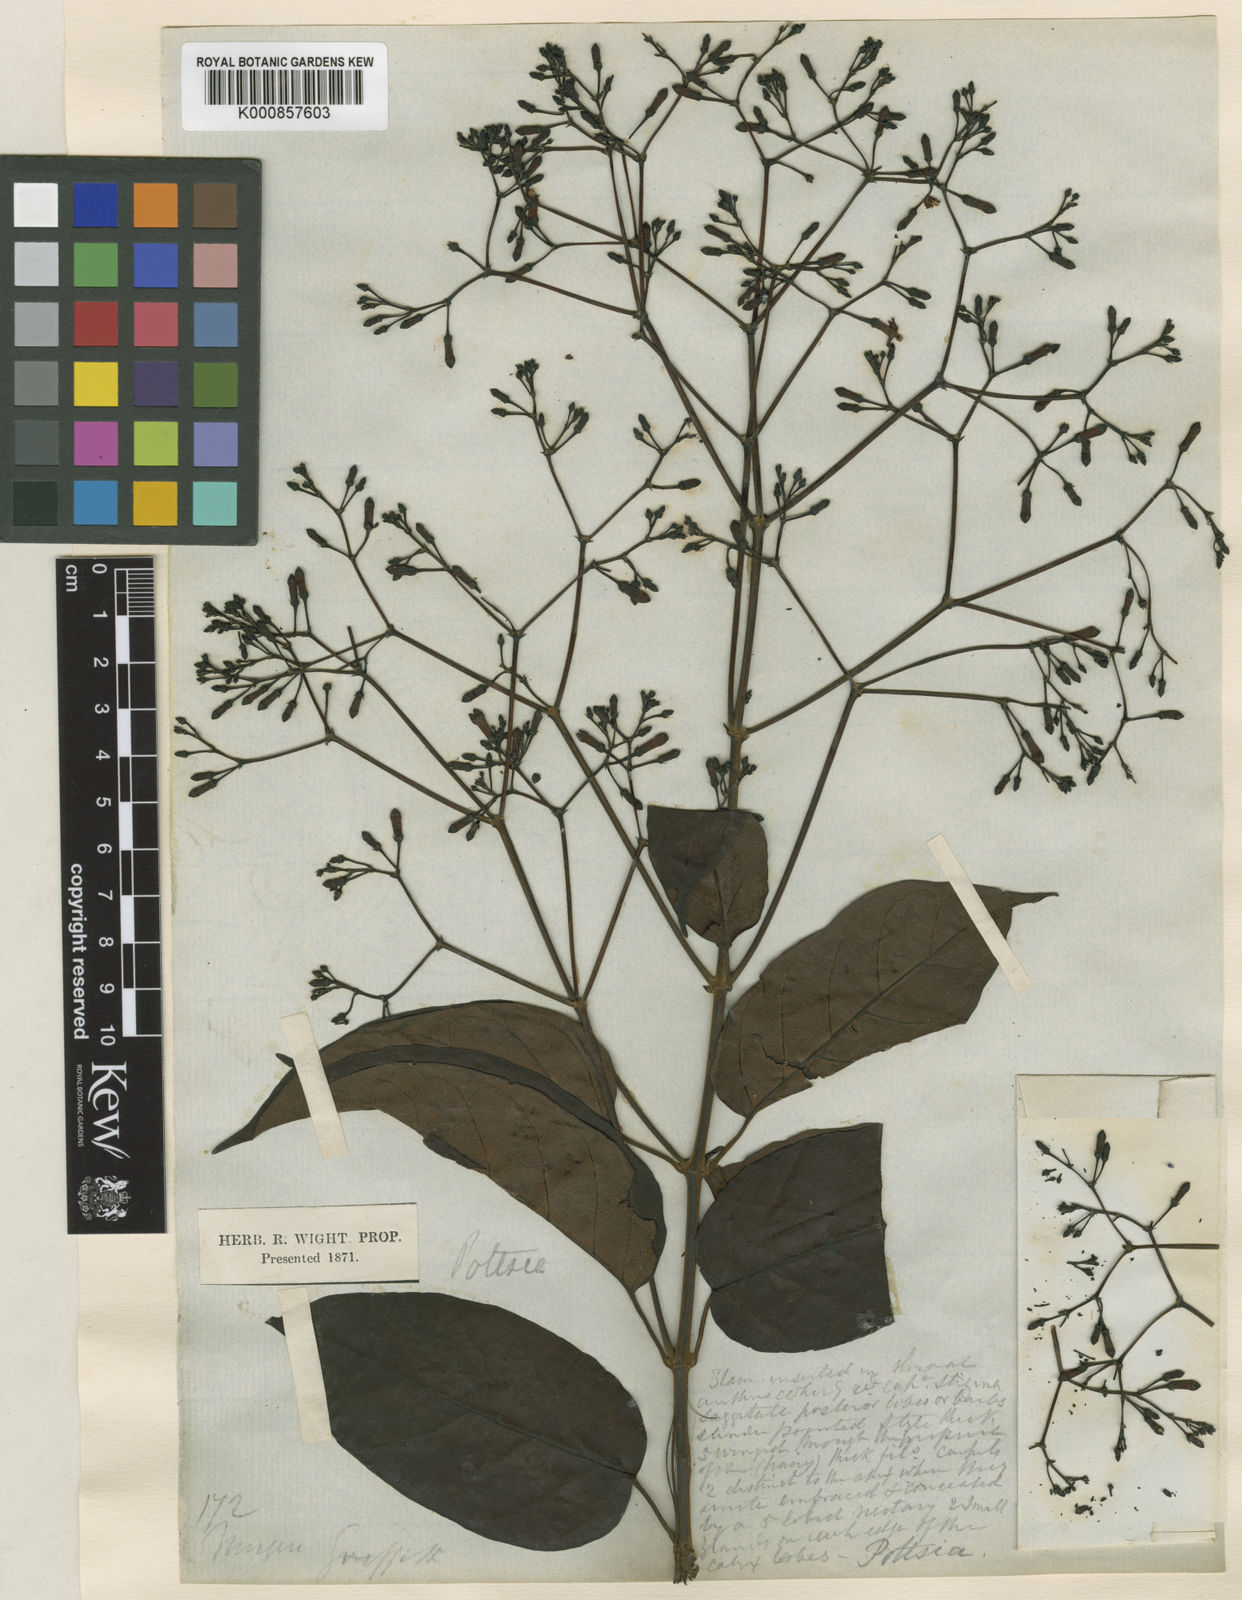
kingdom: Plantae
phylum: Tracheophyta
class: Magnoliopsida
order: Gentianales
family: Apocynaceae
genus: Pottsia
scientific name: Pottsia laxiflora
